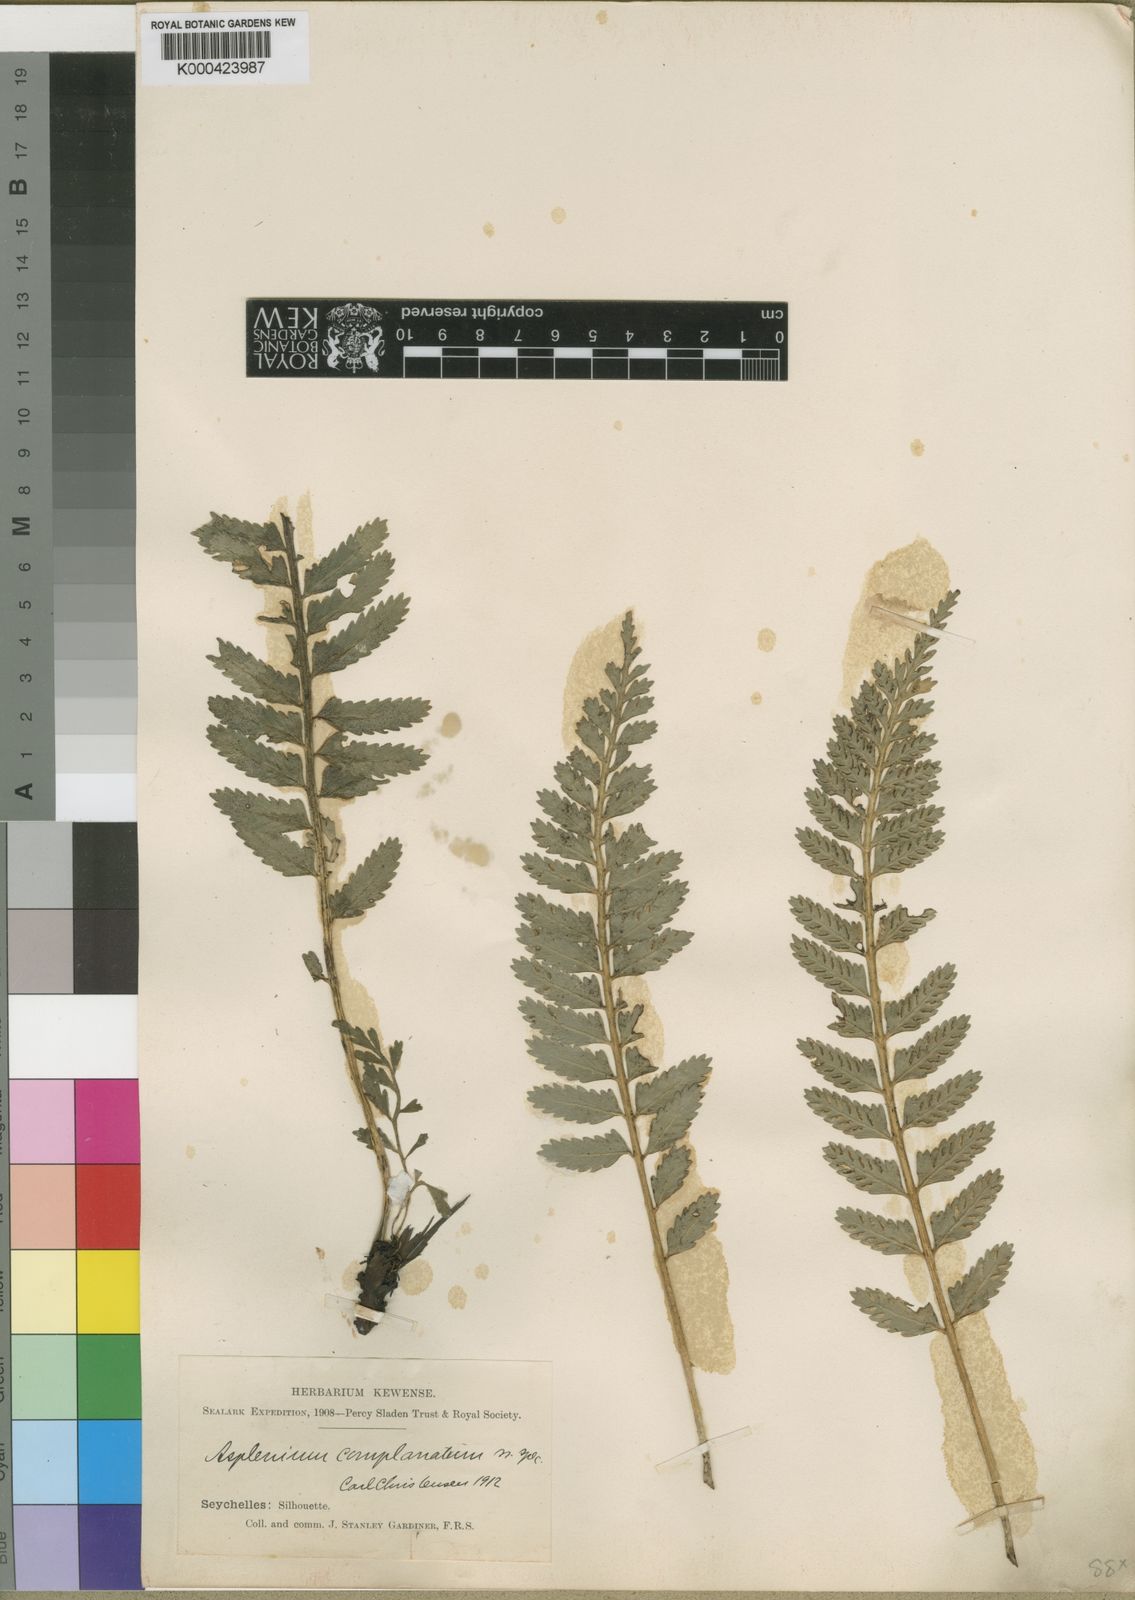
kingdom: Plantae
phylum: Tracheophyta
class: Polypodiopsida
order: Polypodiales
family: Aspleniaceae
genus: Asplenium
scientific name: Asplenium tenerum
